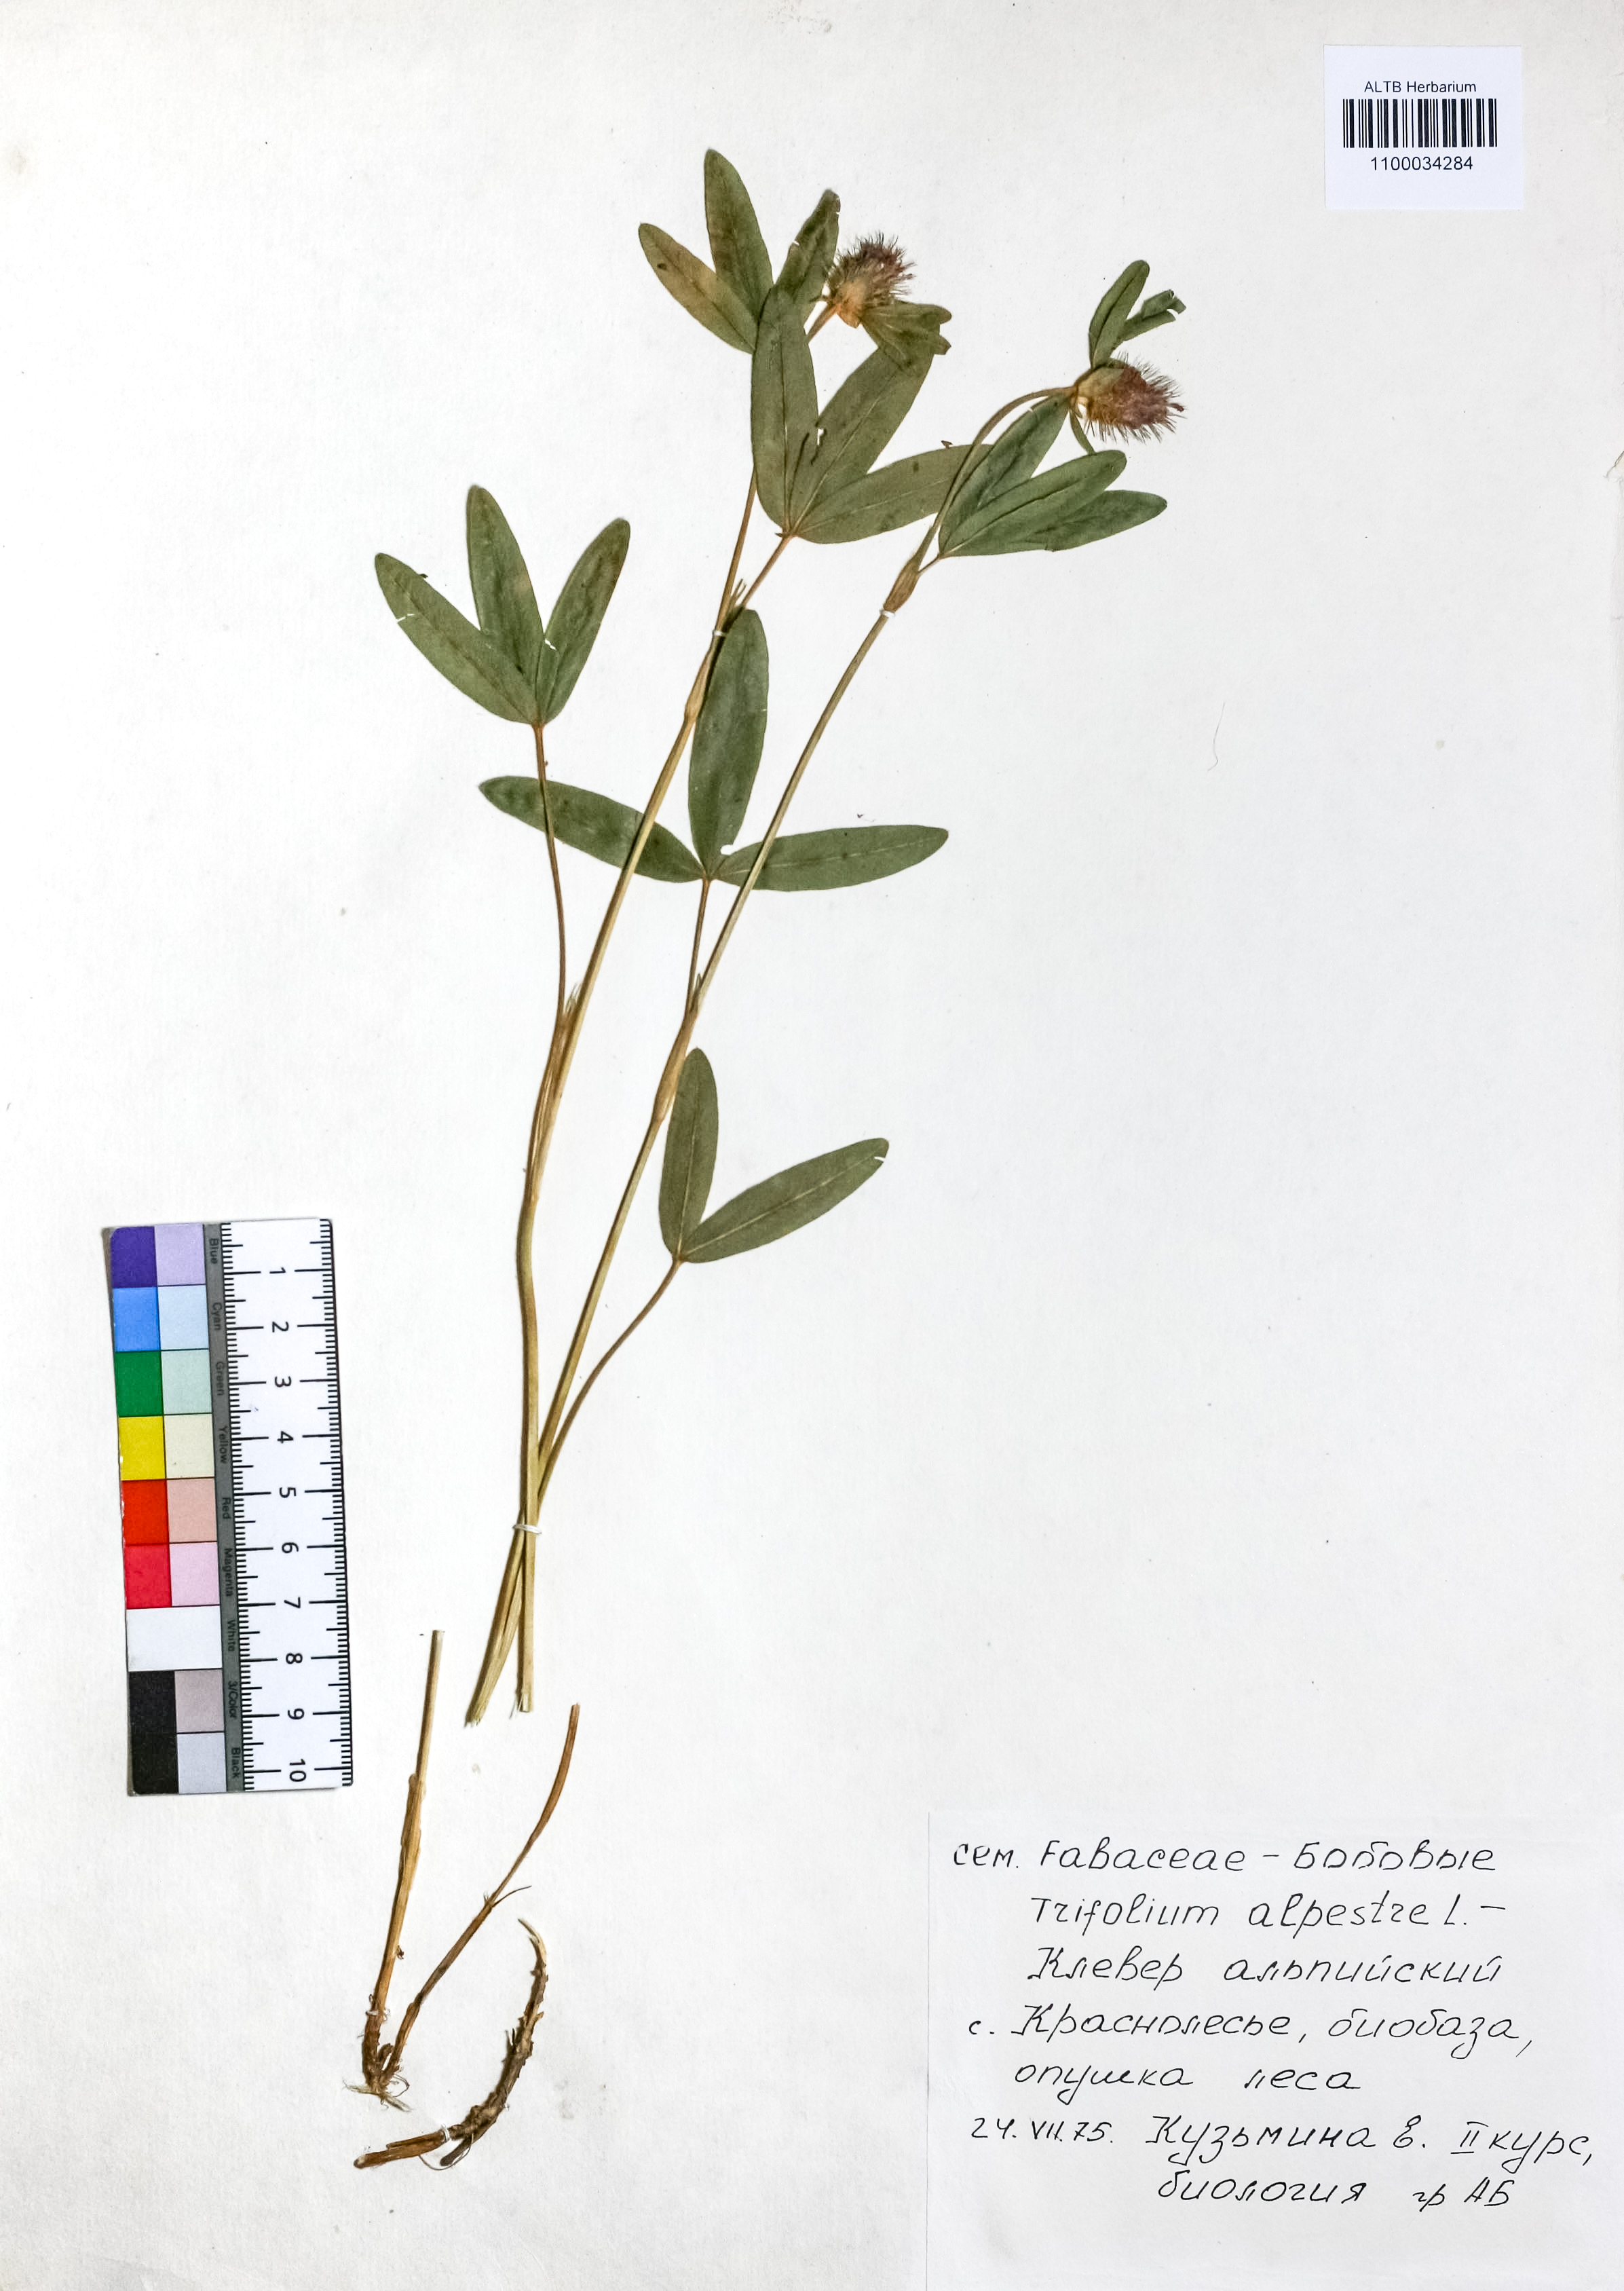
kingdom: Plantae
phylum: Tracheophyta
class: Magnoliopsida
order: Fabales
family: Fabaceae
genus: Trifolium
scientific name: Trifolium alpestre
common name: Owl-head clover
